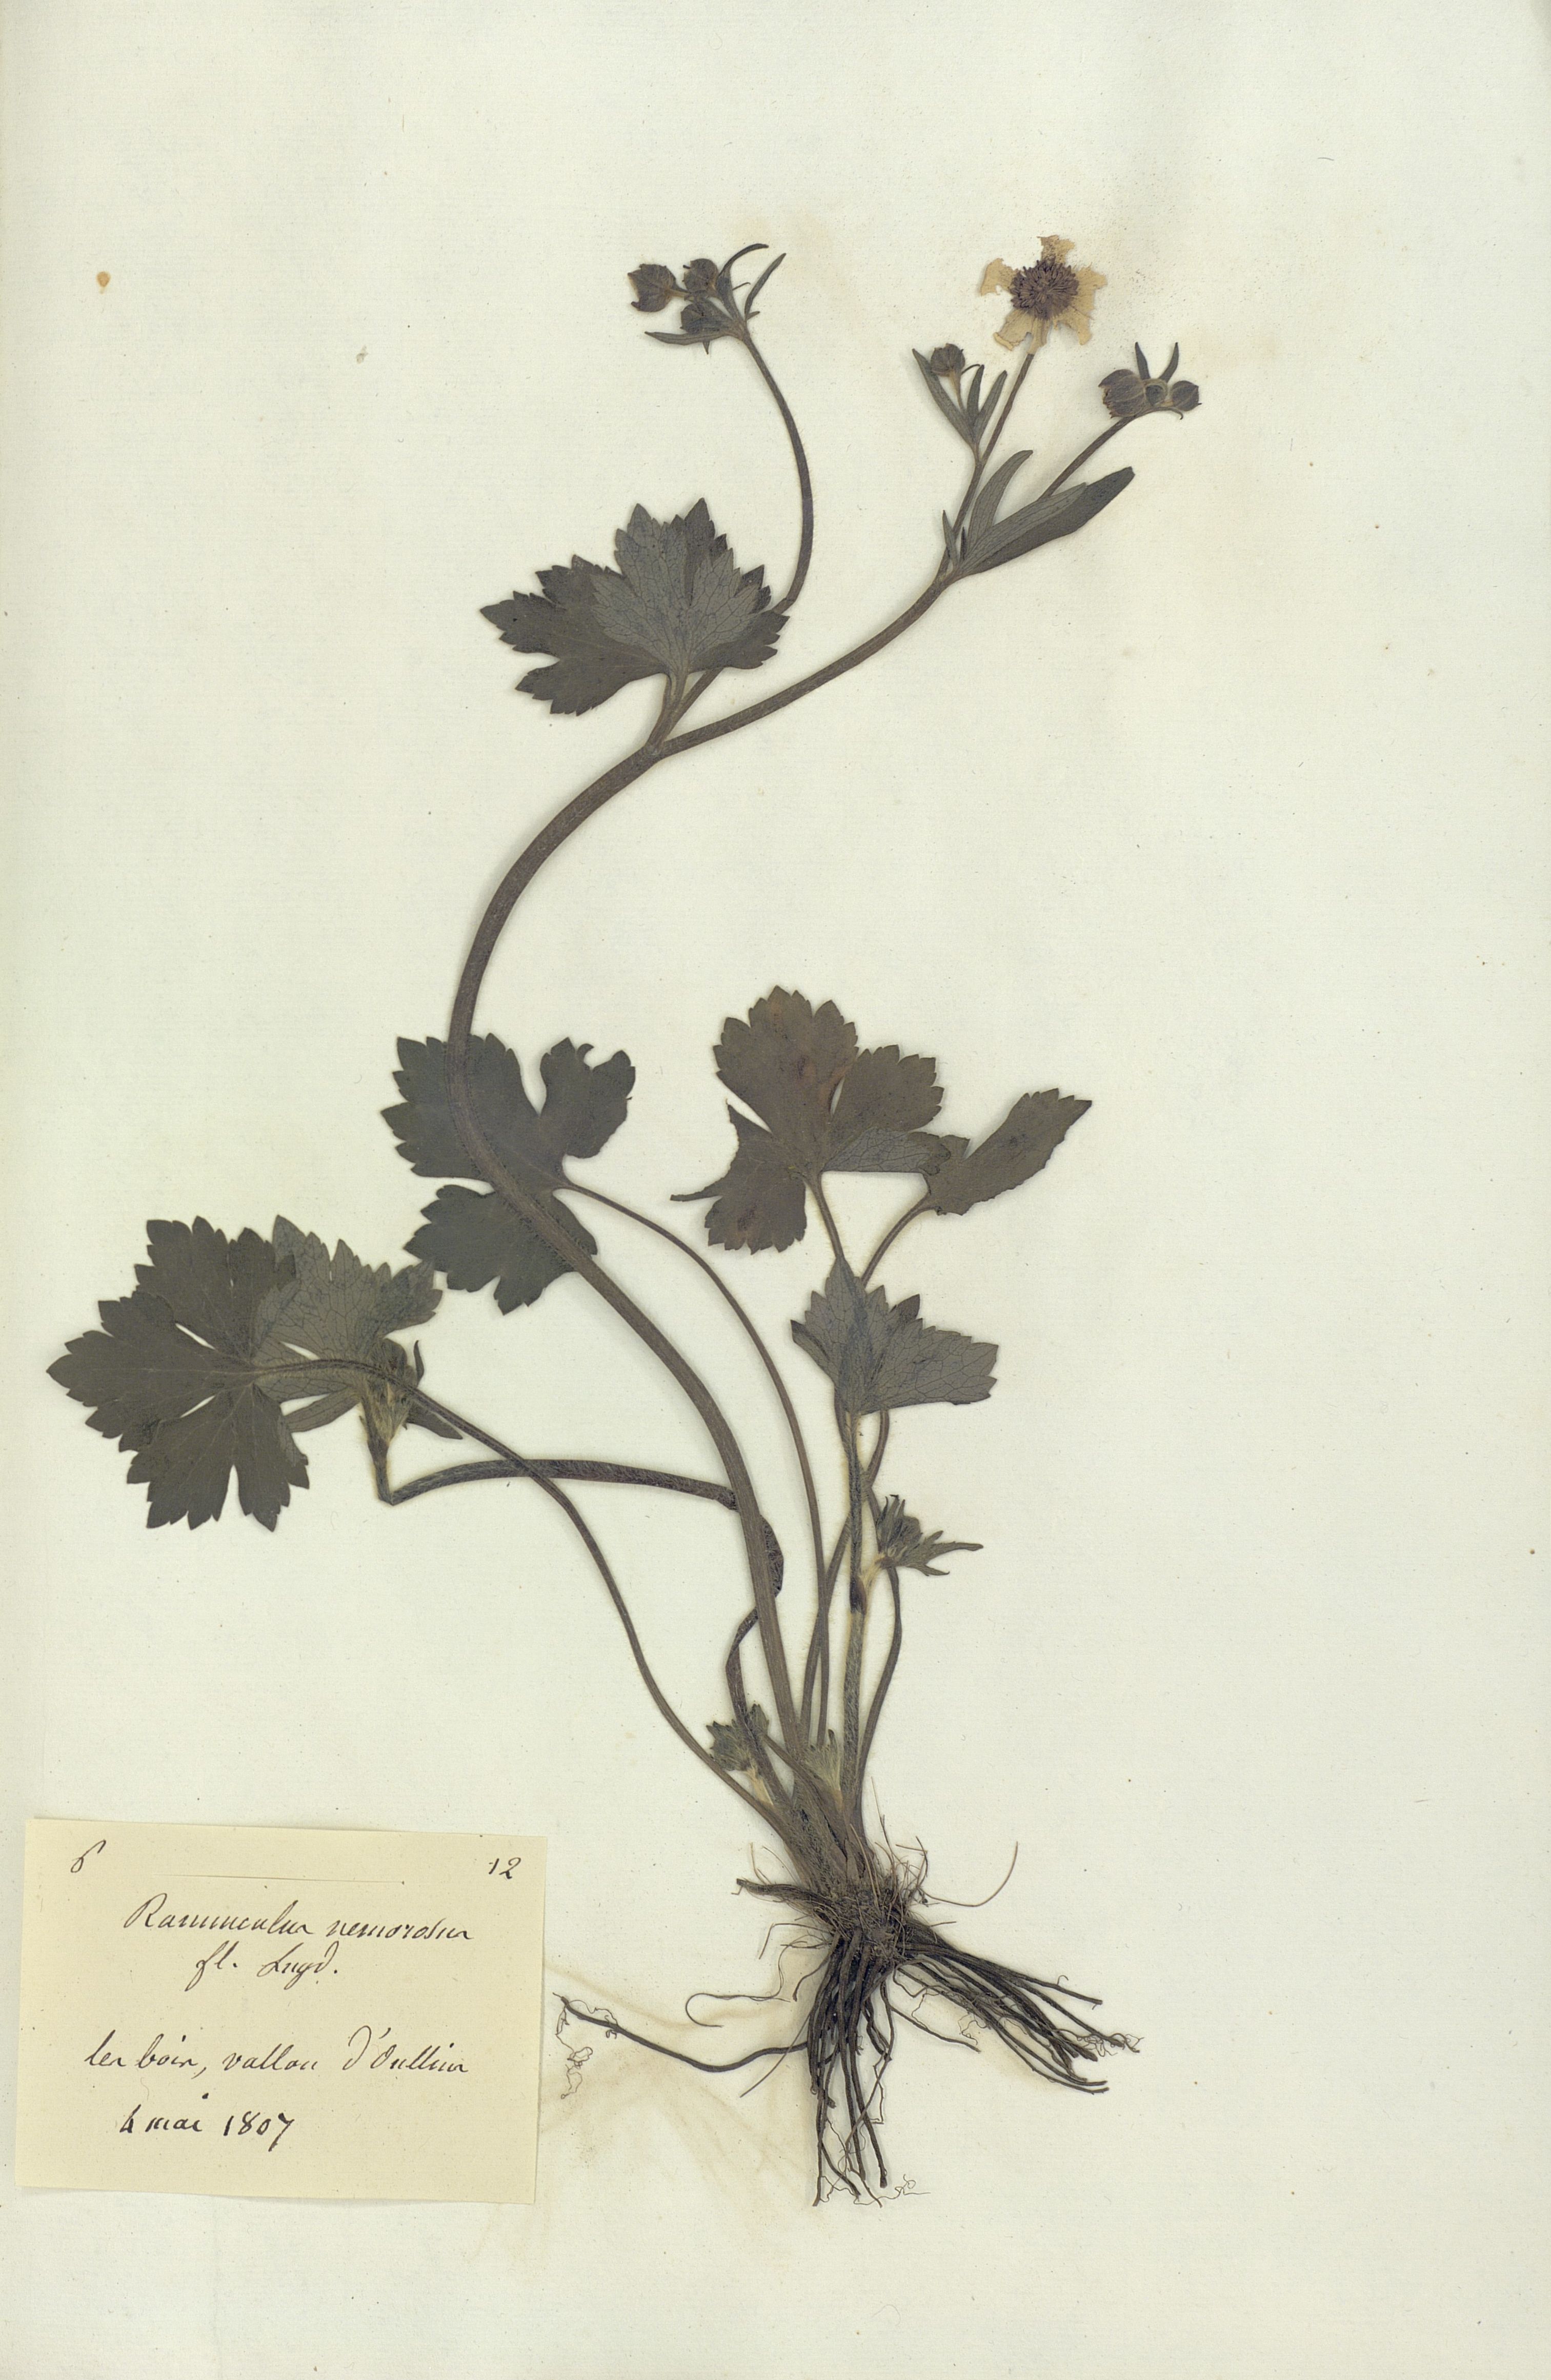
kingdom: Plantae
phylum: Tracheophyta
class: Magnoliopsida
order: Ranunculales
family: Ranunculaceae
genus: Ranunculus
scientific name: Ranunculus polyanthemos
